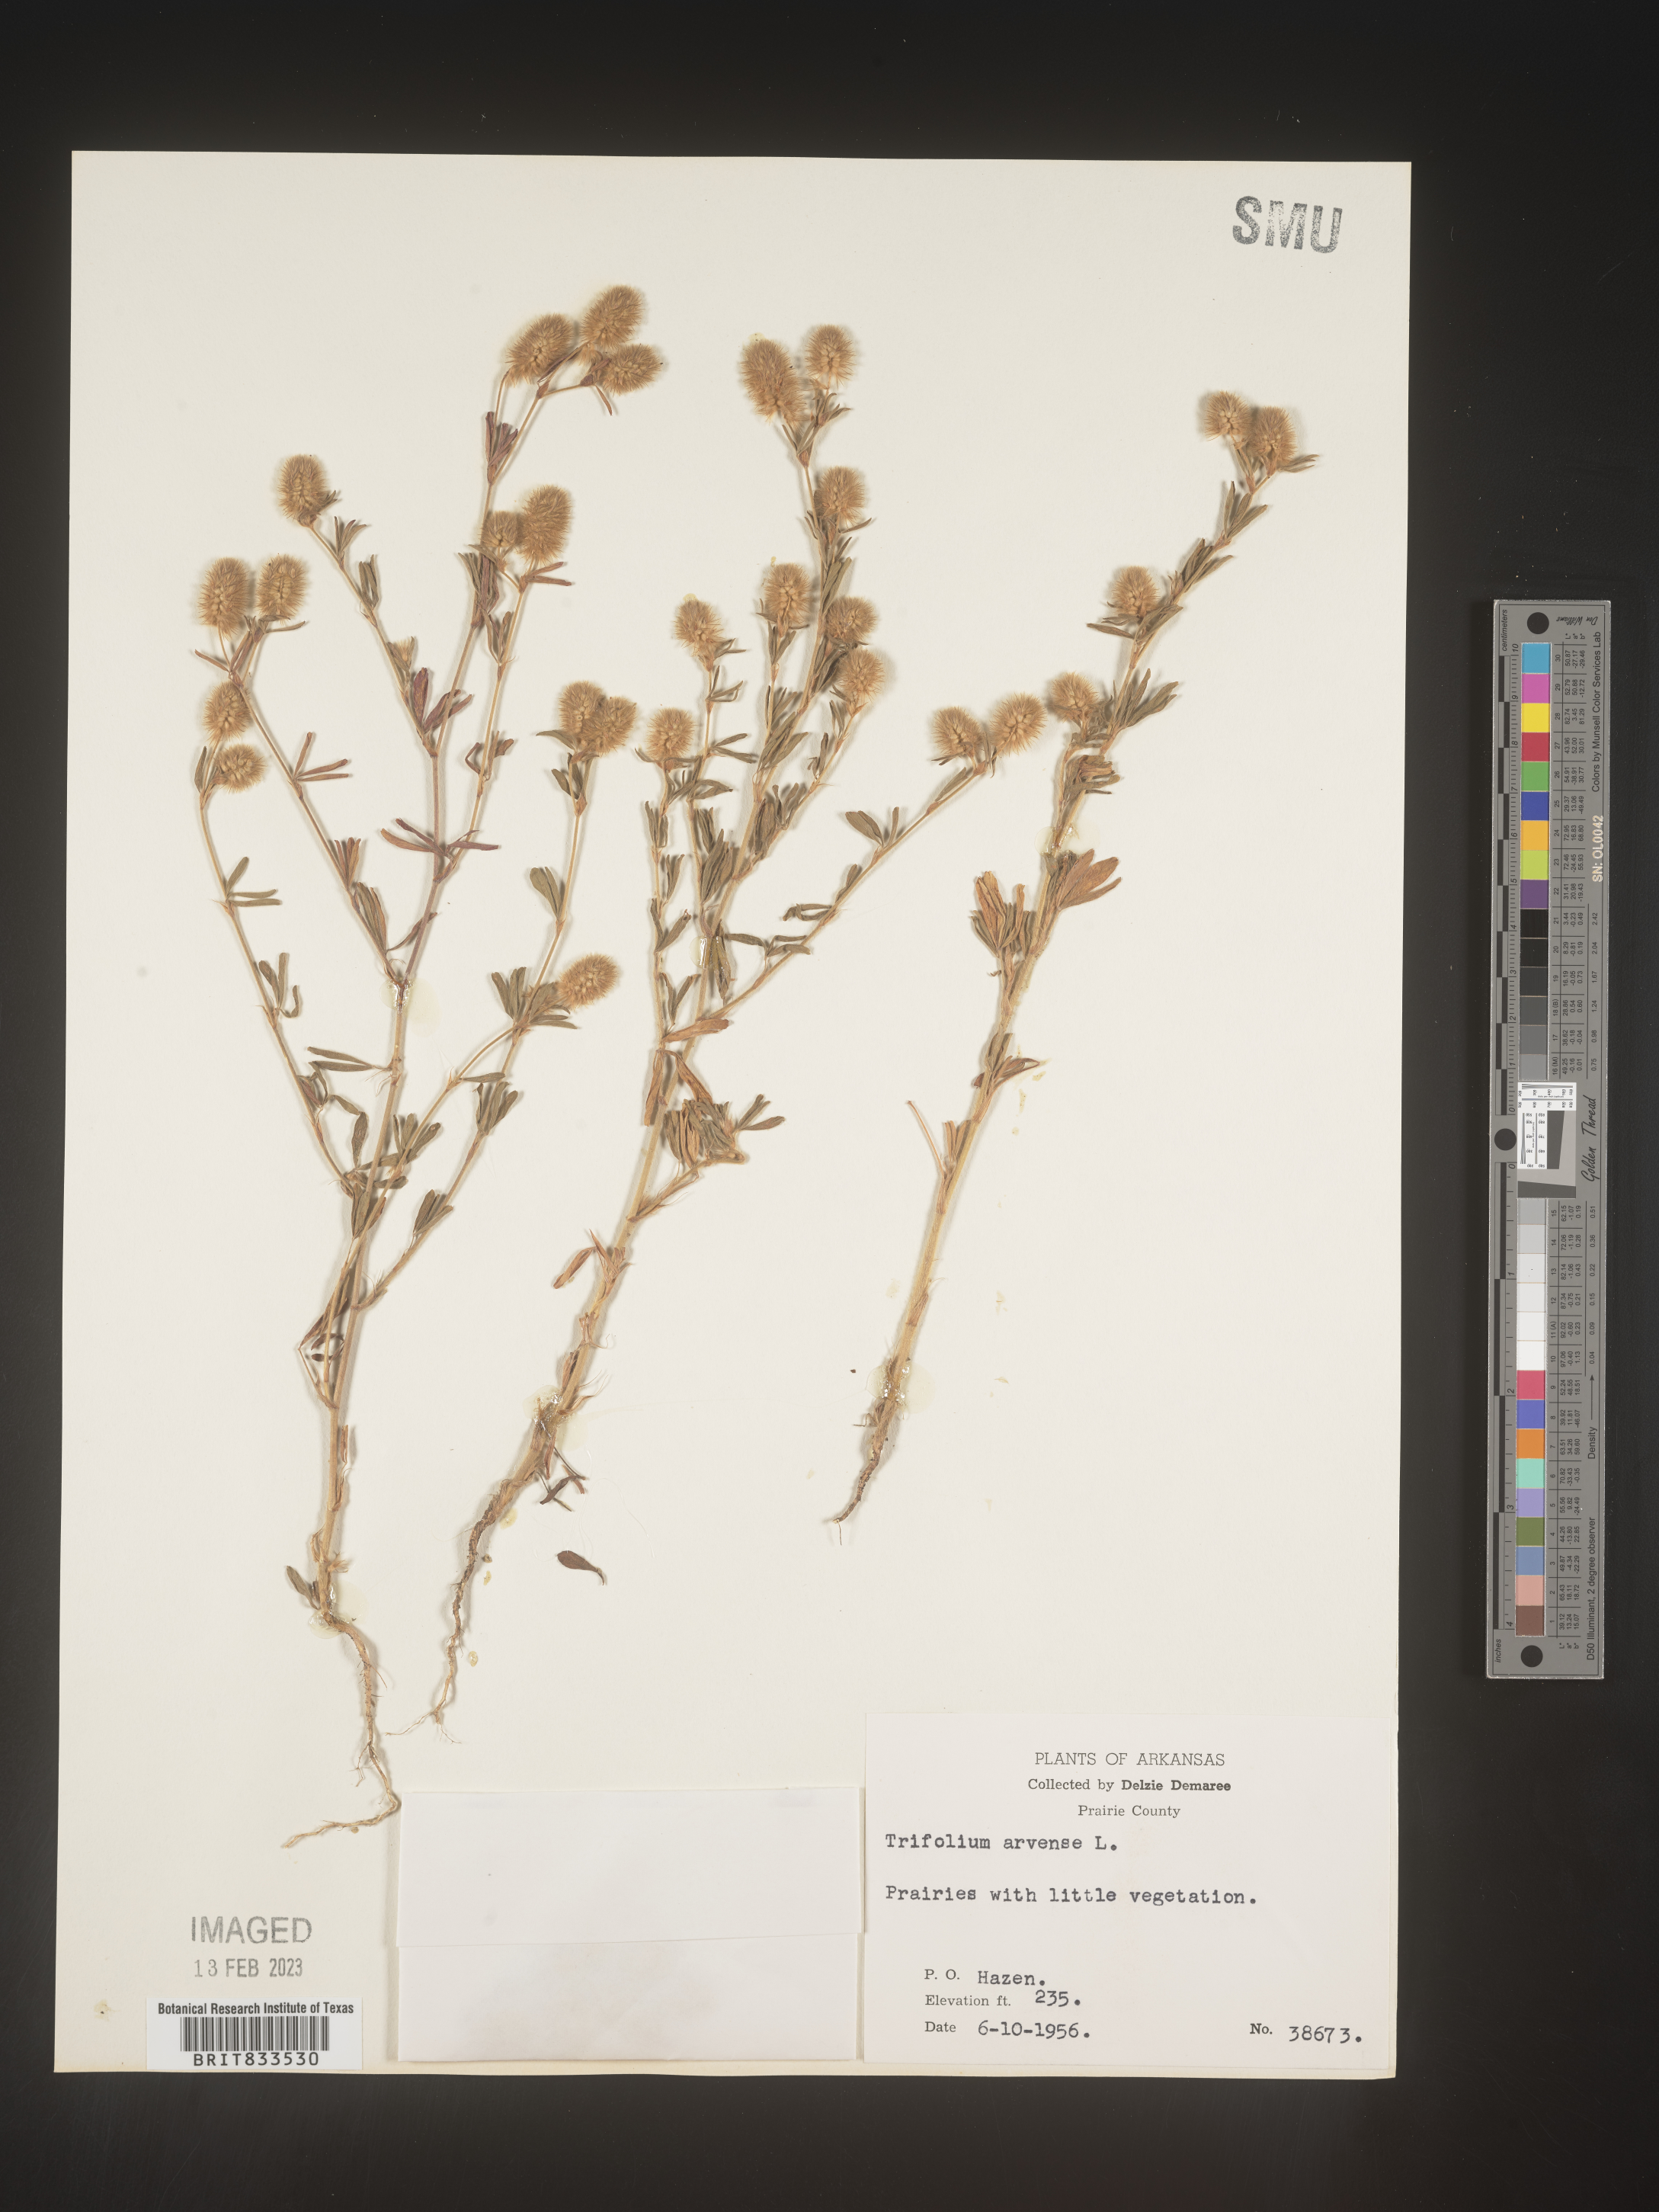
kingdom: Plantae
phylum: Tracheophyta
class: Magnoliopsida
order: Fabales
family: Fabaceae
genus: Trifolium
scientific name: Trifolium arvense
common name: Hare's-foot clover
